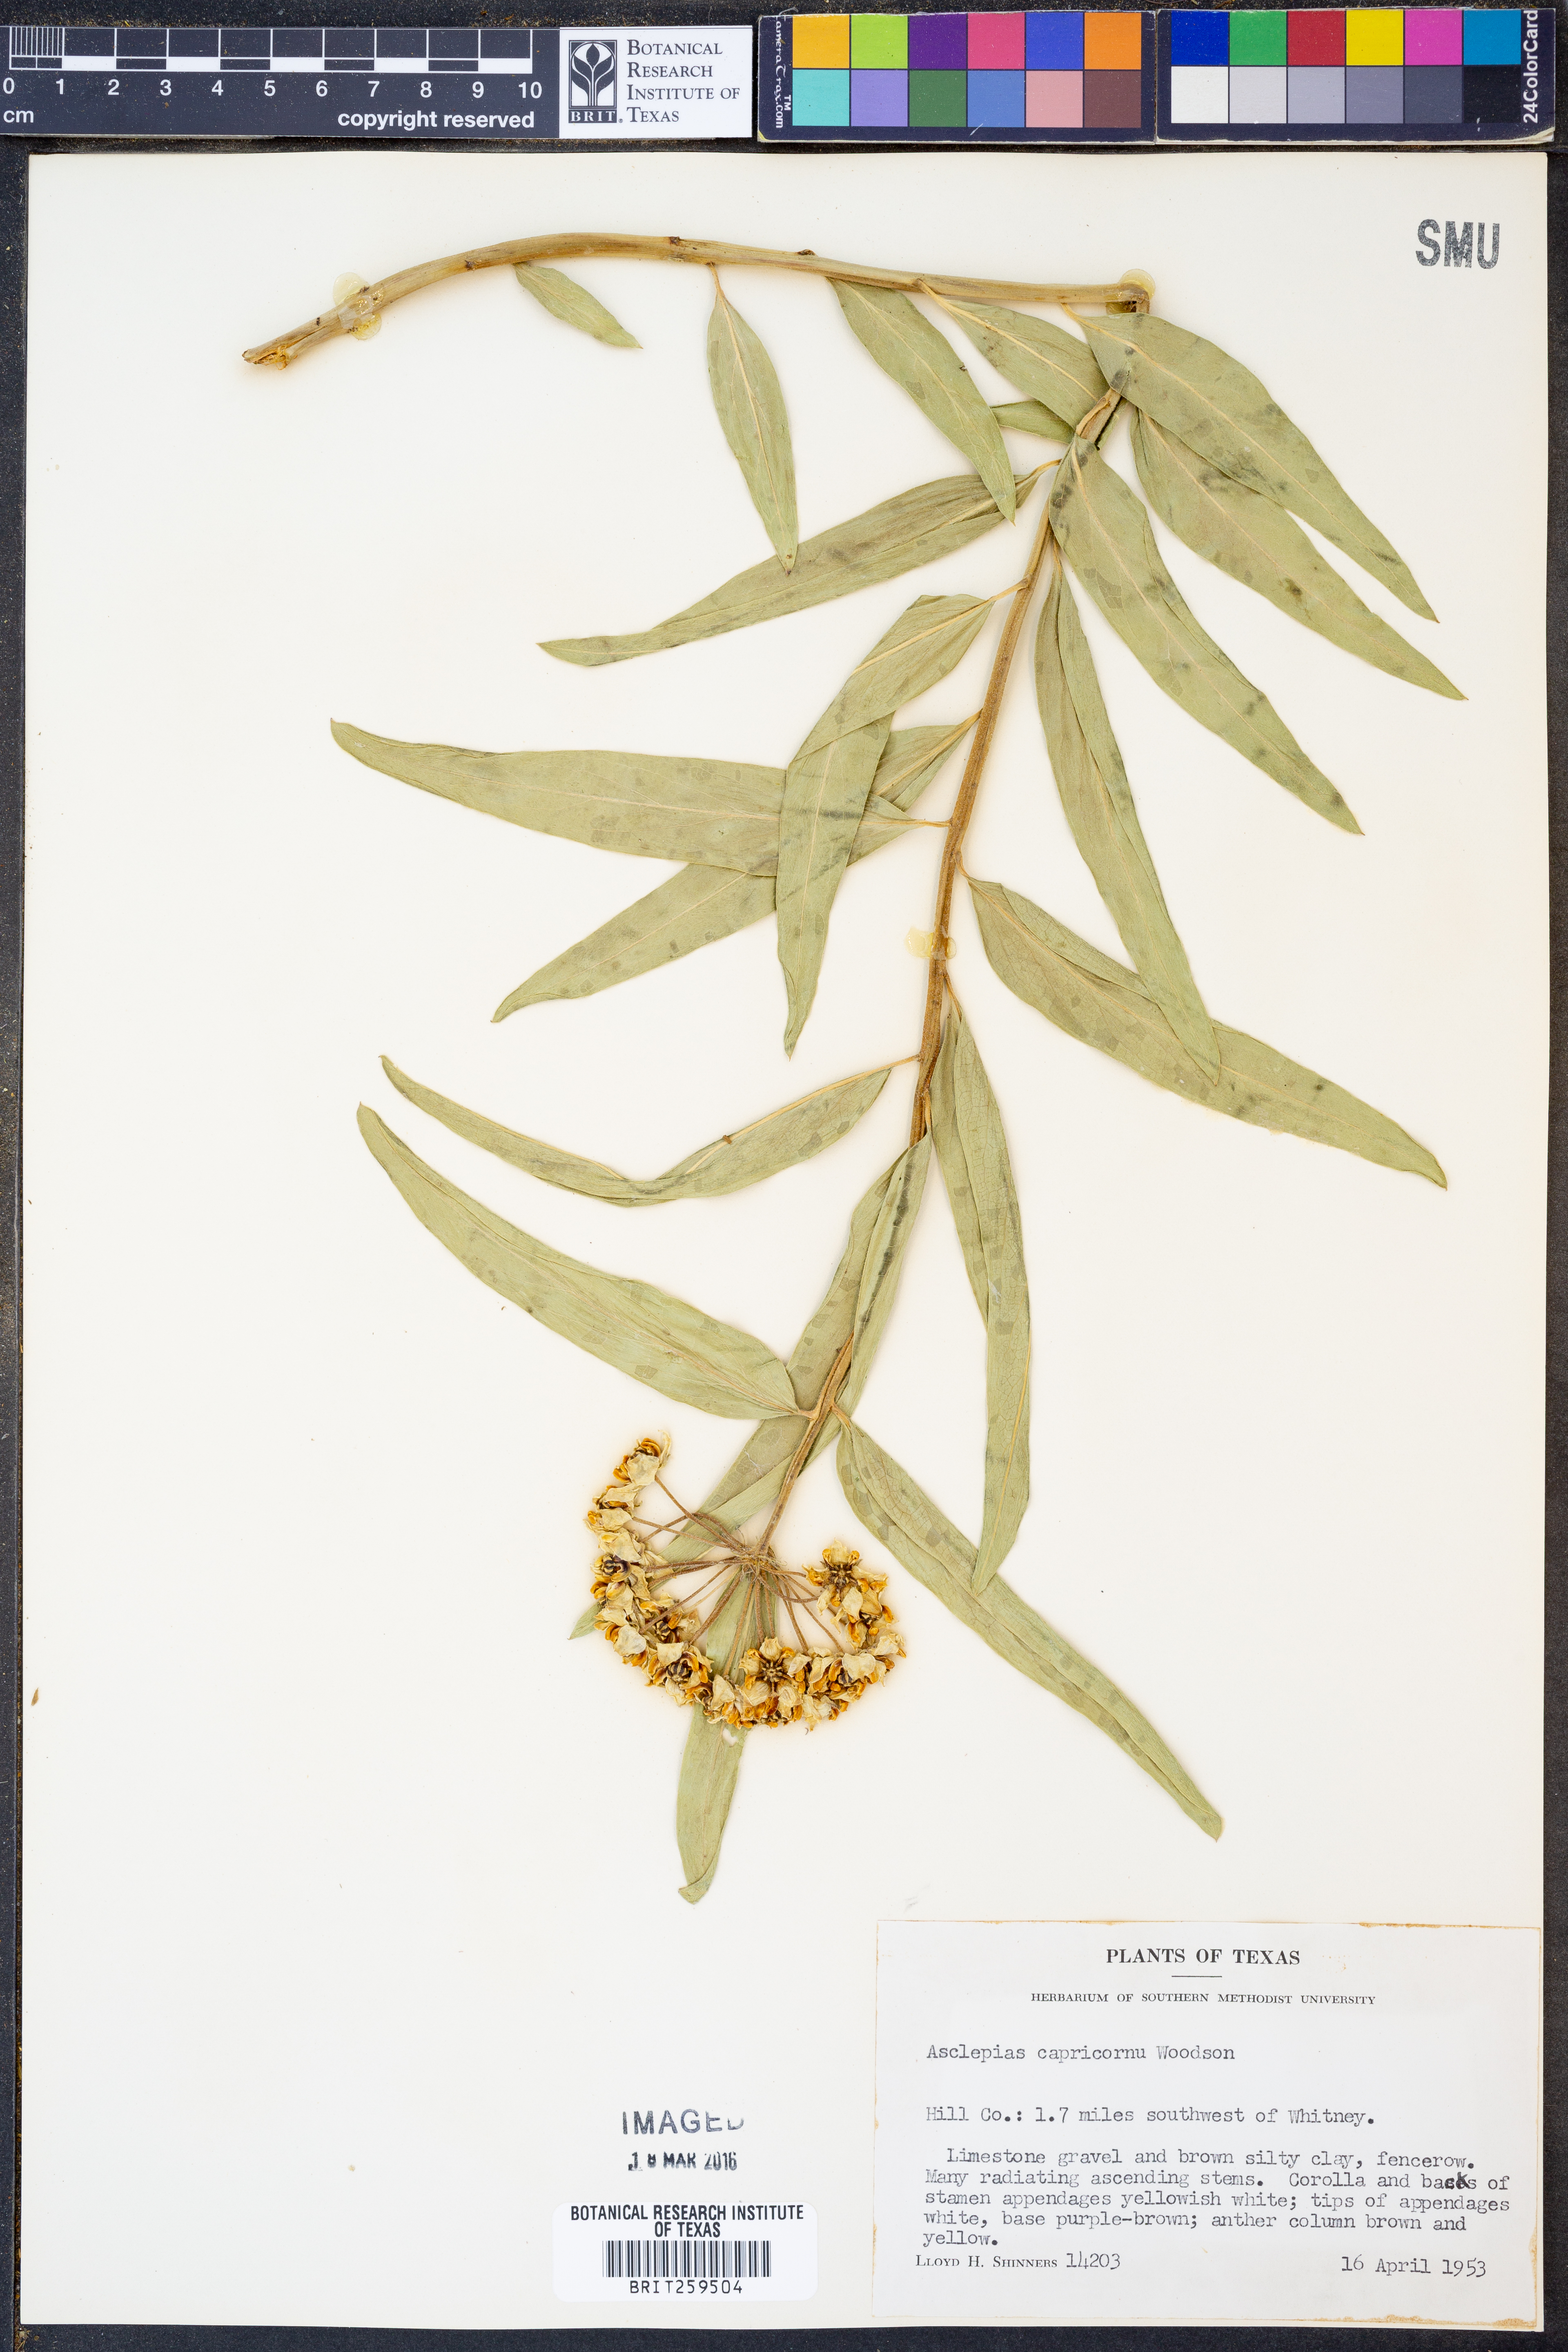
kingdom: Plantae
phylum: Tracheophyta
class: Magnoliopsida
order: Gentianales
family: Apocynaceae
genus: Asclepias
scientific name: Asclepias asperula
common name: Antelope horns
